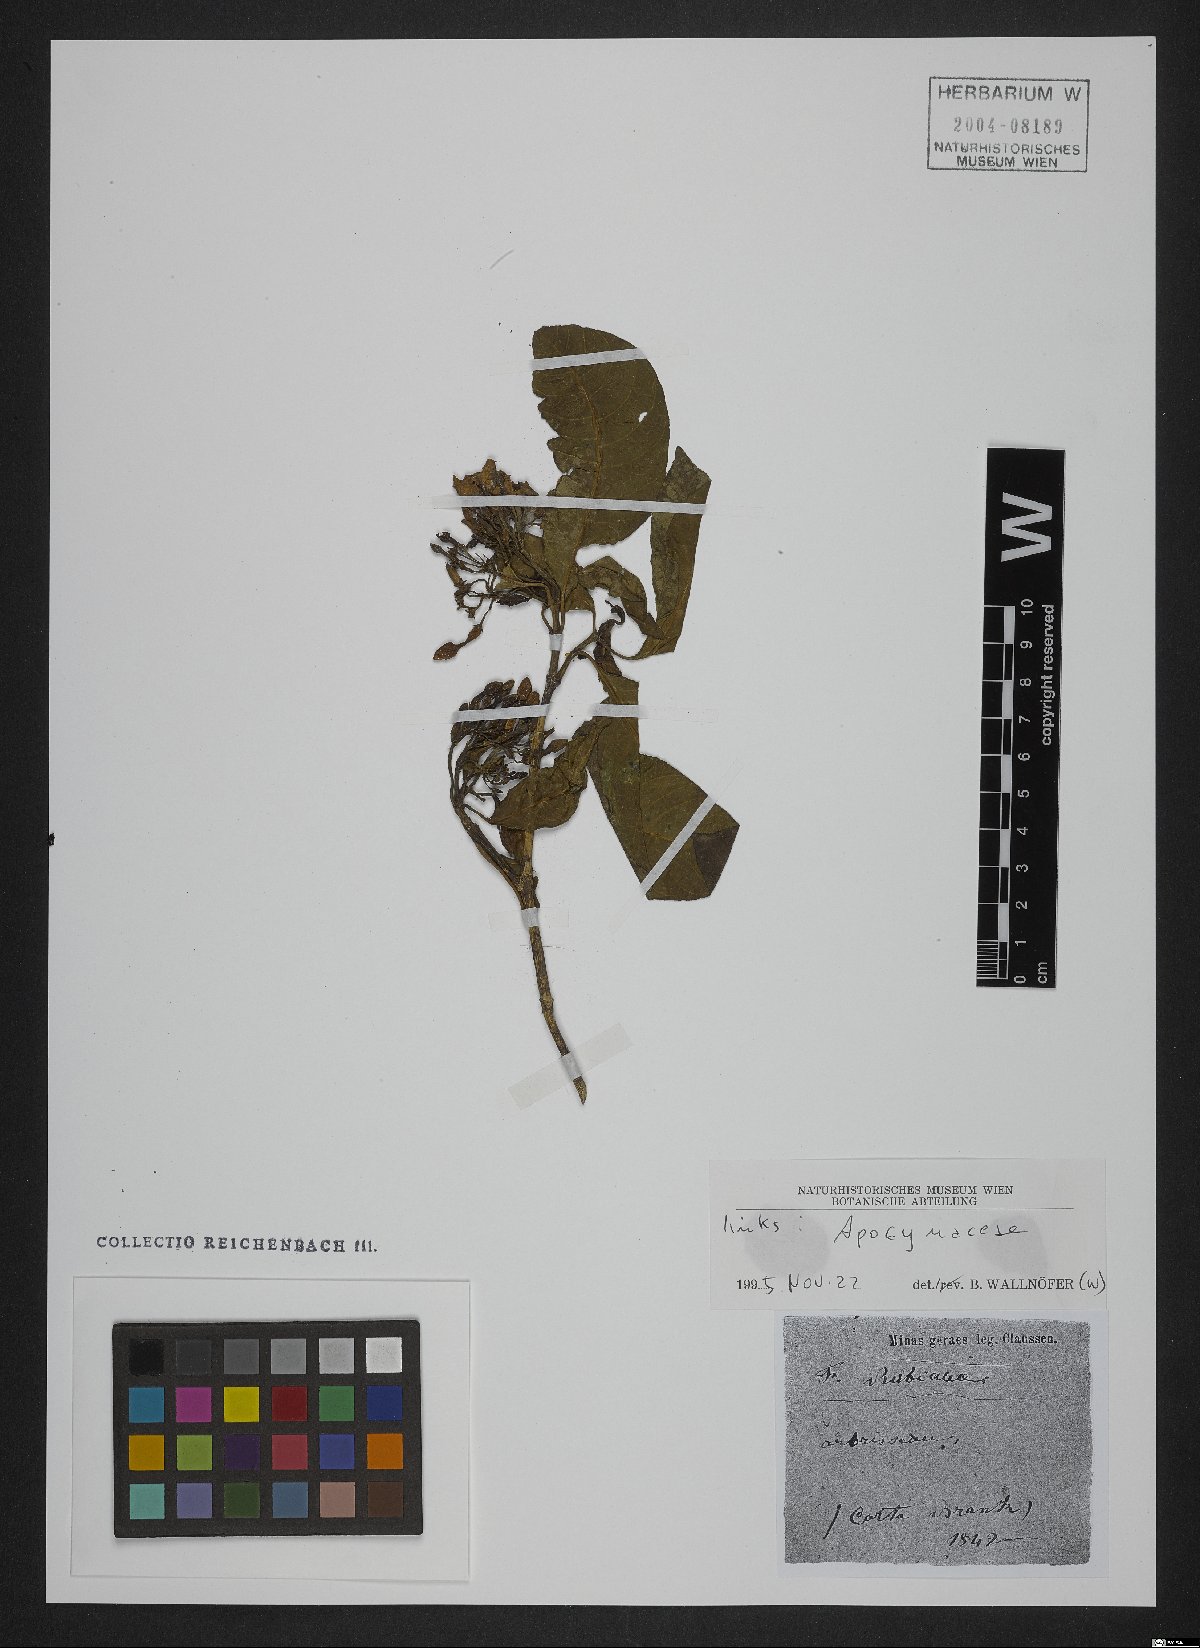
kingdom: Plantae
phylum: Tracheophyta
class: Magnoliopsida
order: Gentianales
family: Apocynaceae
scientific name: Apocynaceae
